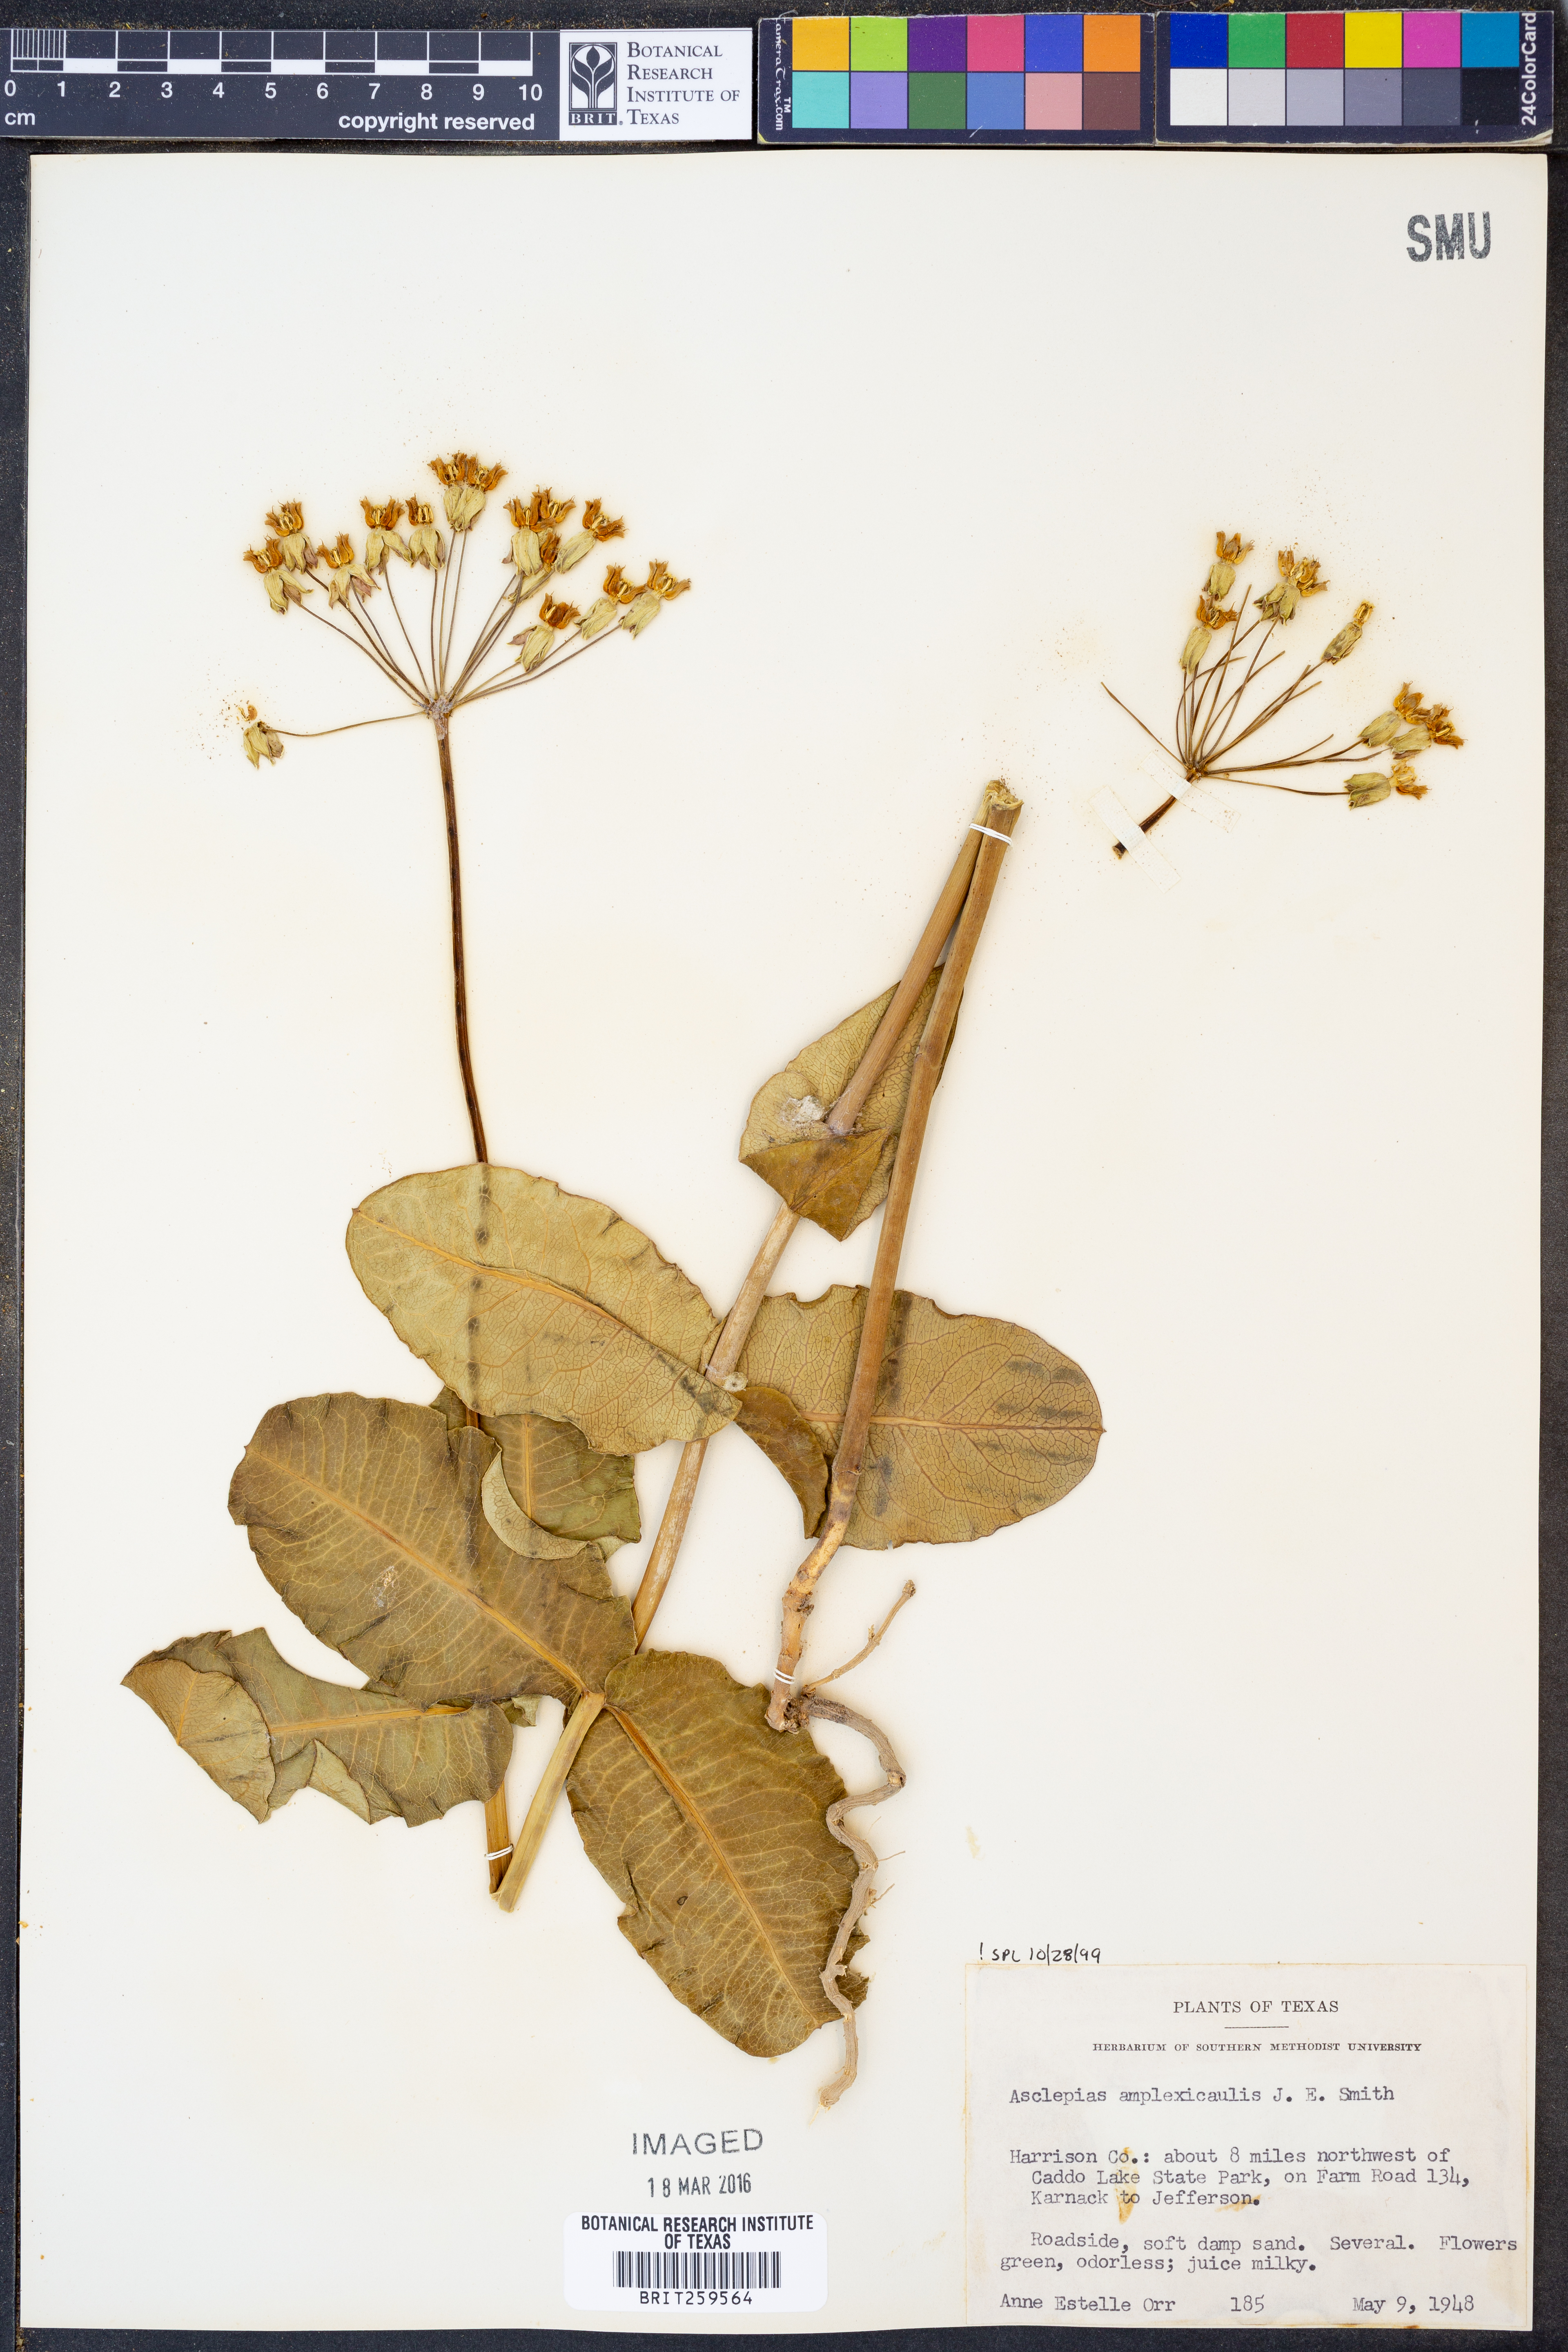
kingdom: Plantae
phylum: Tracheophyta
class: Magnoliopsida
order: Gentianales
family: Apocynaceae
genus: Asclepias
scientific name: Asclepias amplexicaulis
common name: Blunt-leaf milkweed
